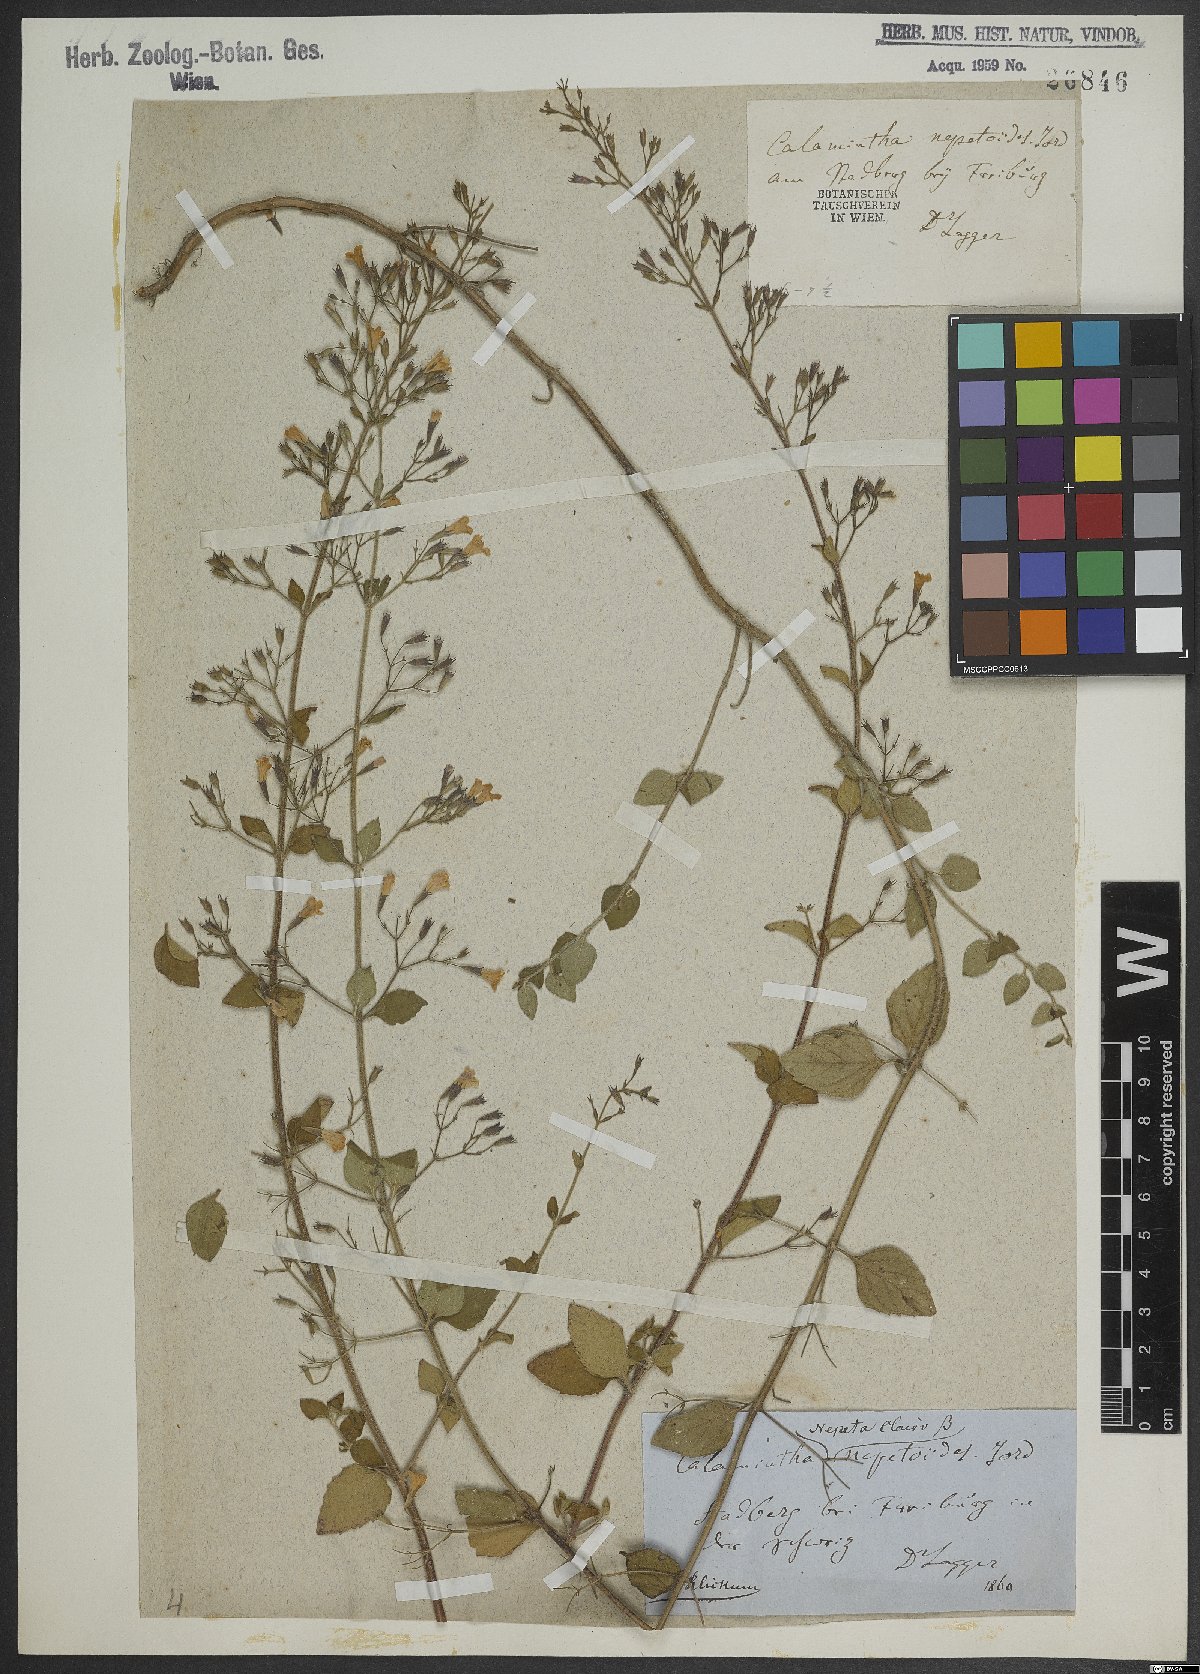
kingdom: Plantae
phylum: Tracheophyta
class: Magnoliopsida
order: Lamiales
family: Lamiaceae
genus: Clinopodium
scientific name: Clinopodium nepeta
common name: Lesser calamint
